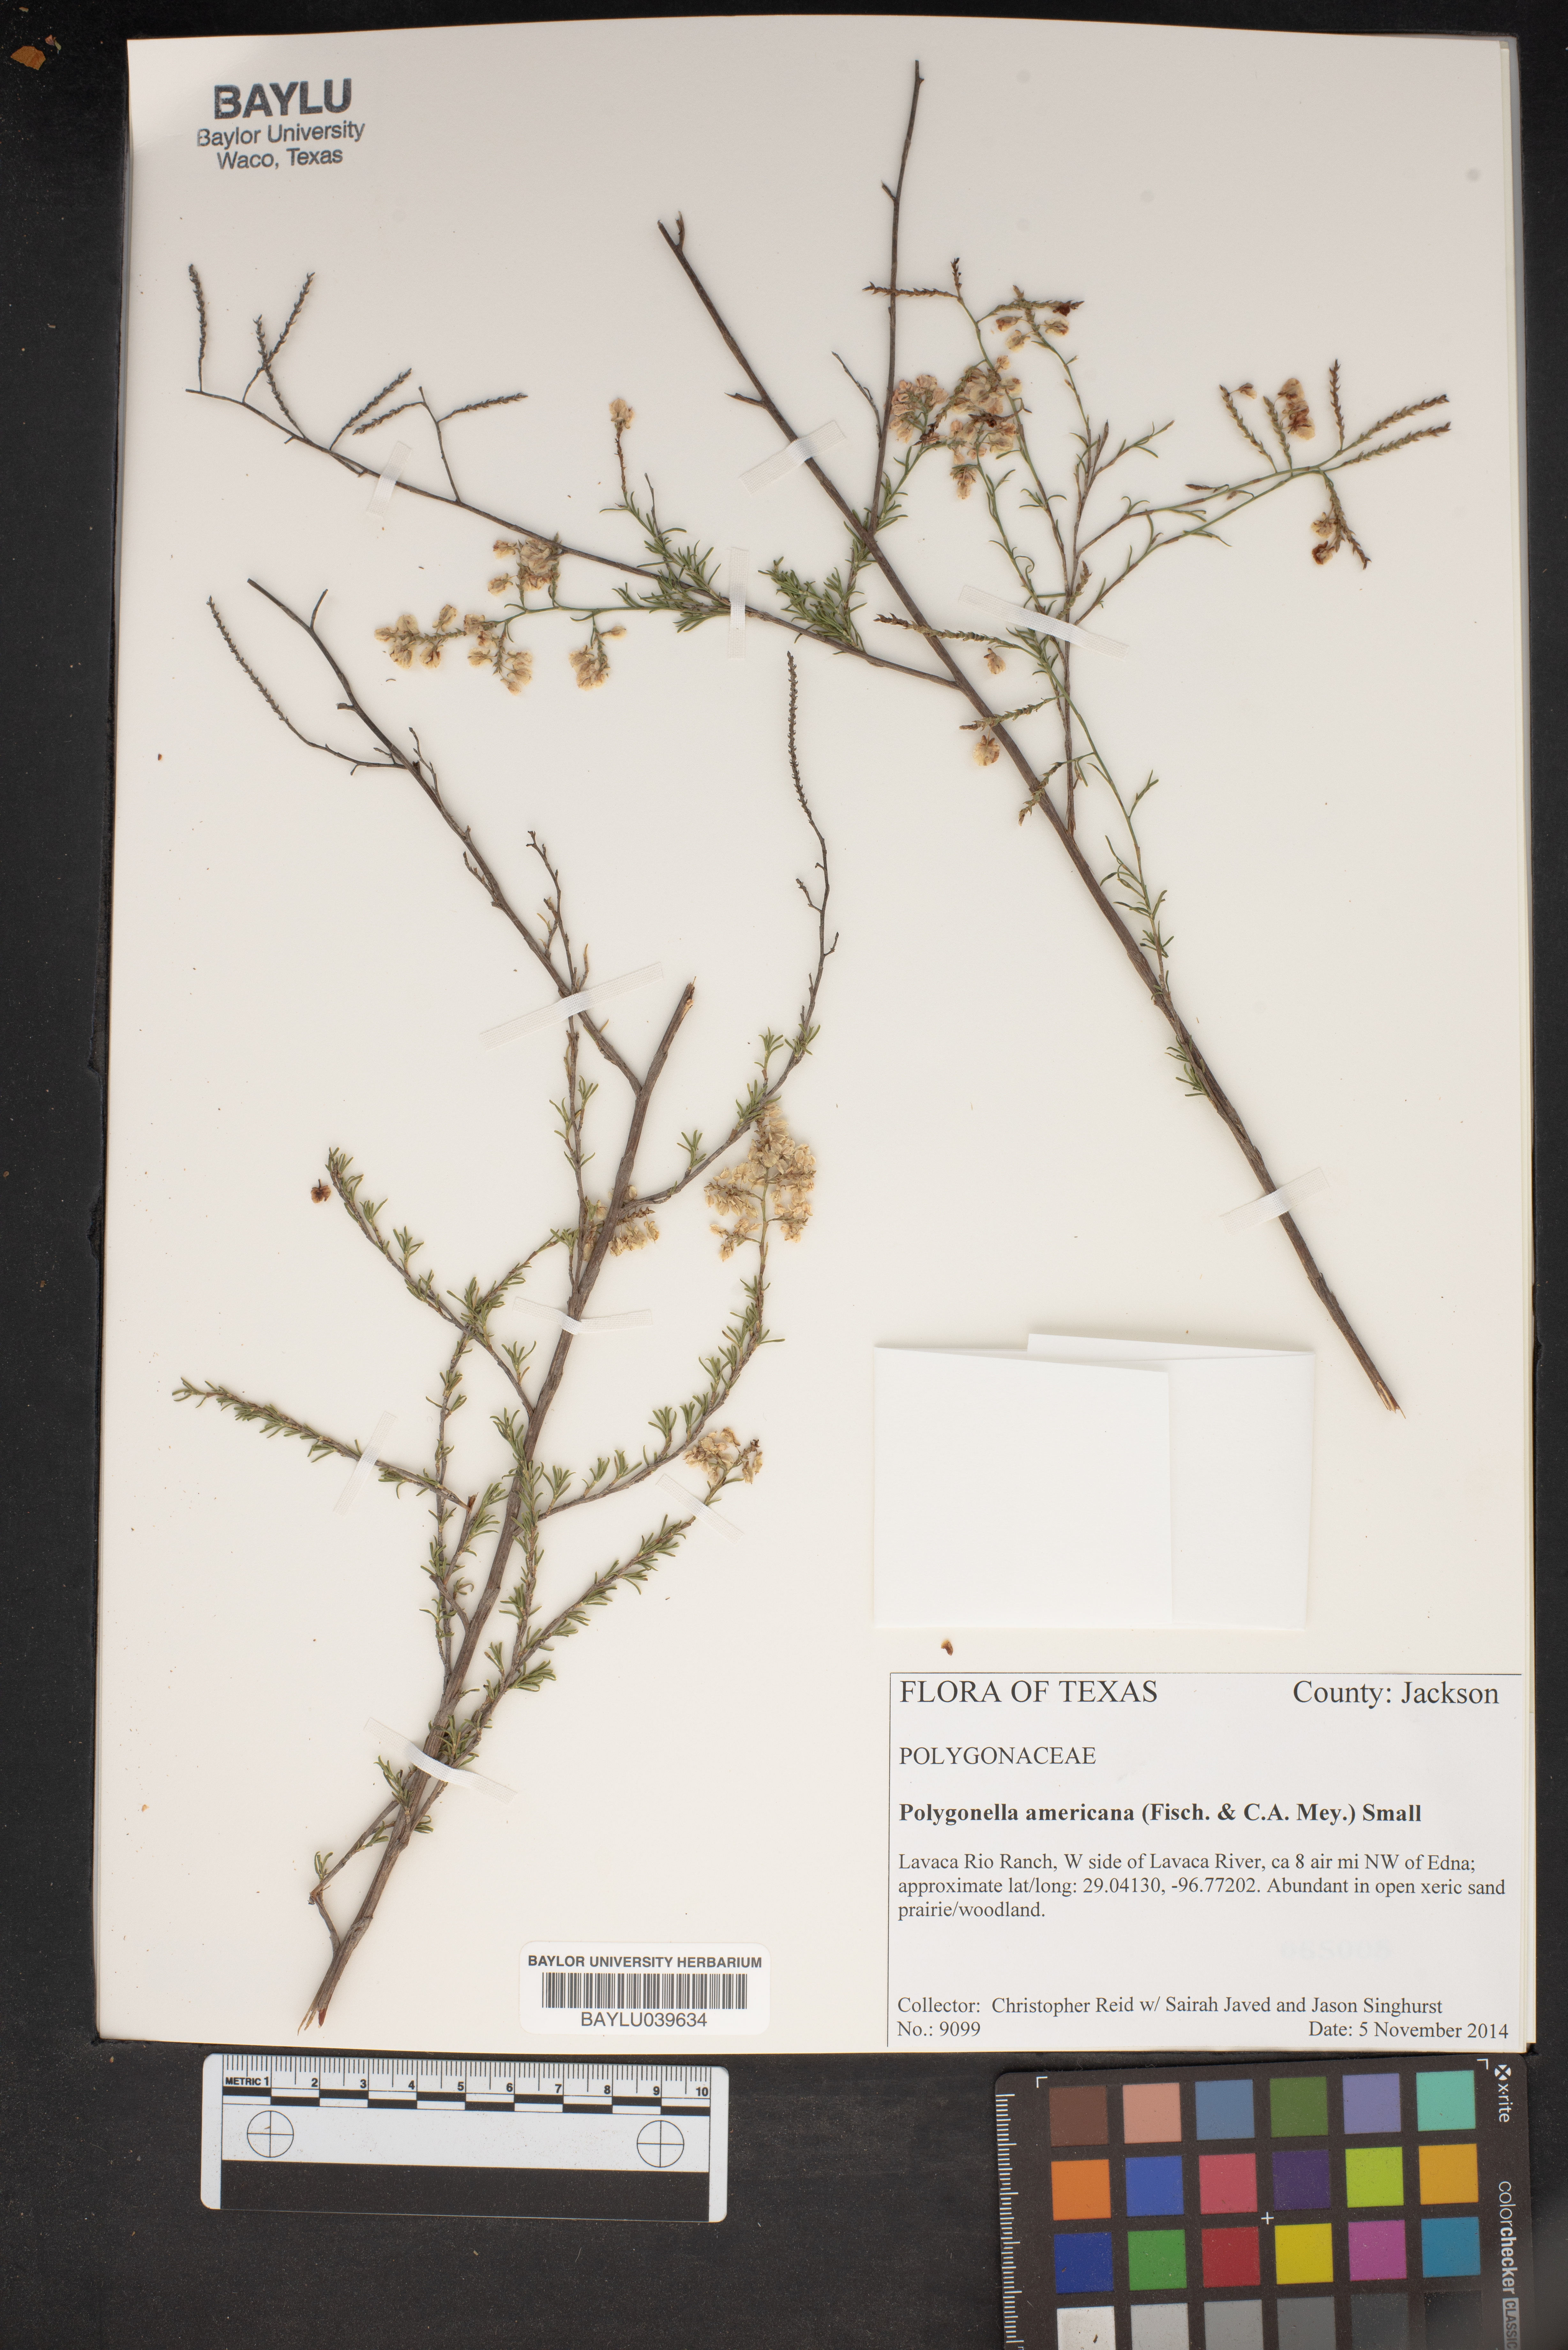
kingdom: Plantae
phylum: Tracheophyta
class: Magnoliopsida
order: Caryophyllales
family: Polygonaceae
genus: Polygonella
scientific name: Polygonella americana
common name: Southern jointweed
